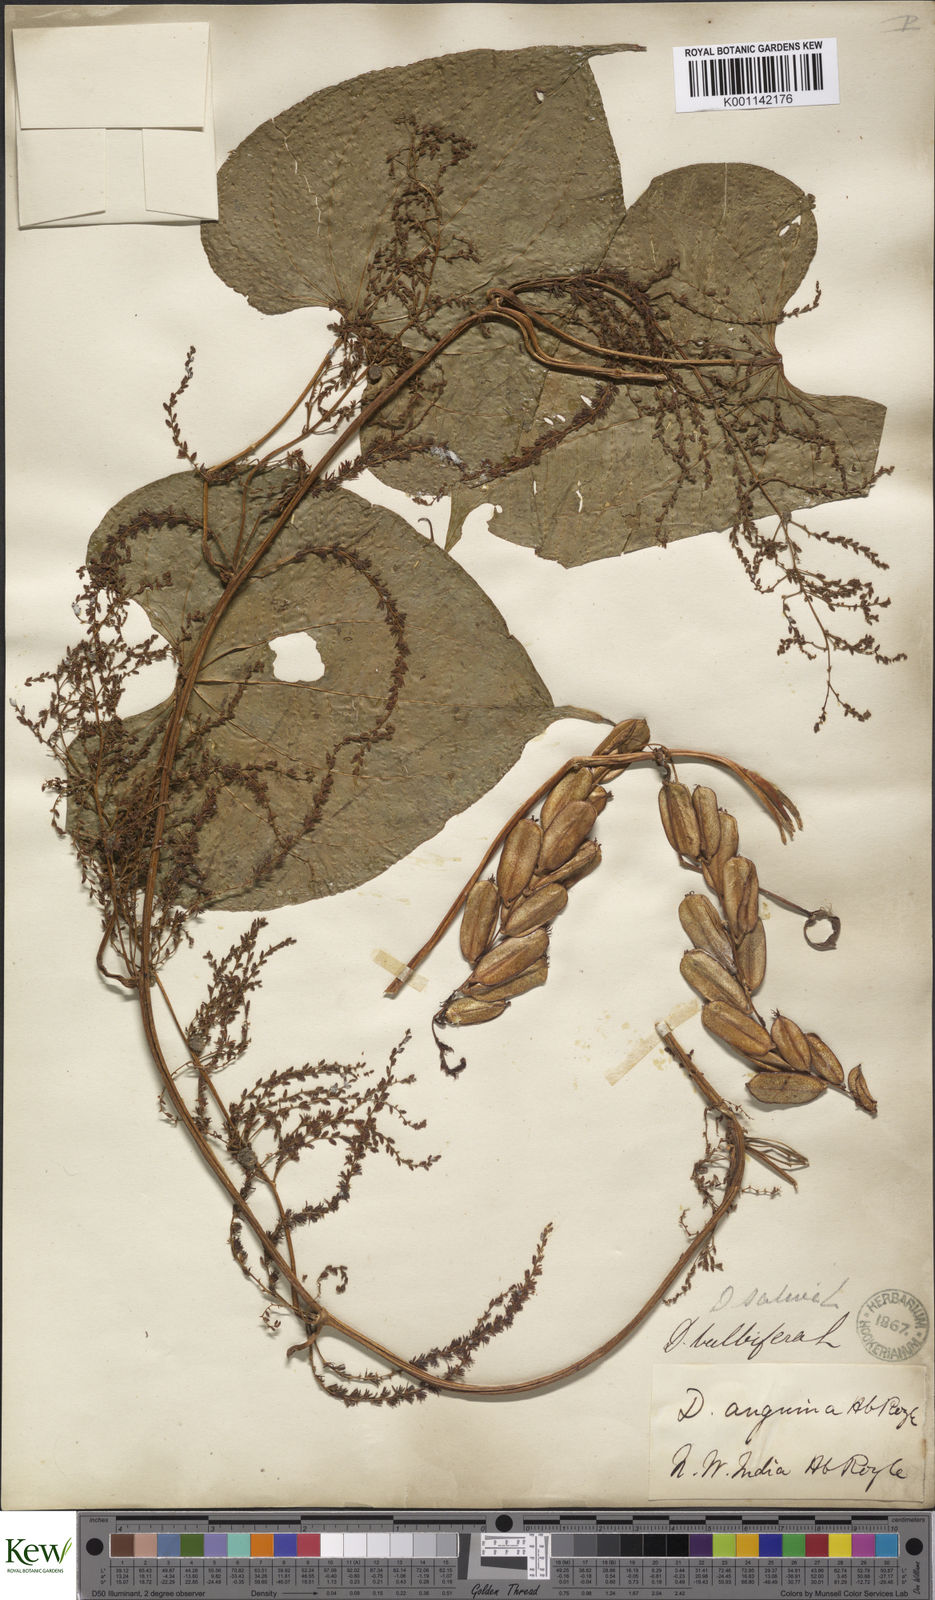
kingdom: Plantae
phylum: Tracheophyta
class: Liliopsida
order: Dioscoreales
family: Dioscoreaceae
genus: Dioscorea
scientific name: Dioscorea bulbifera
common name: Air yam
